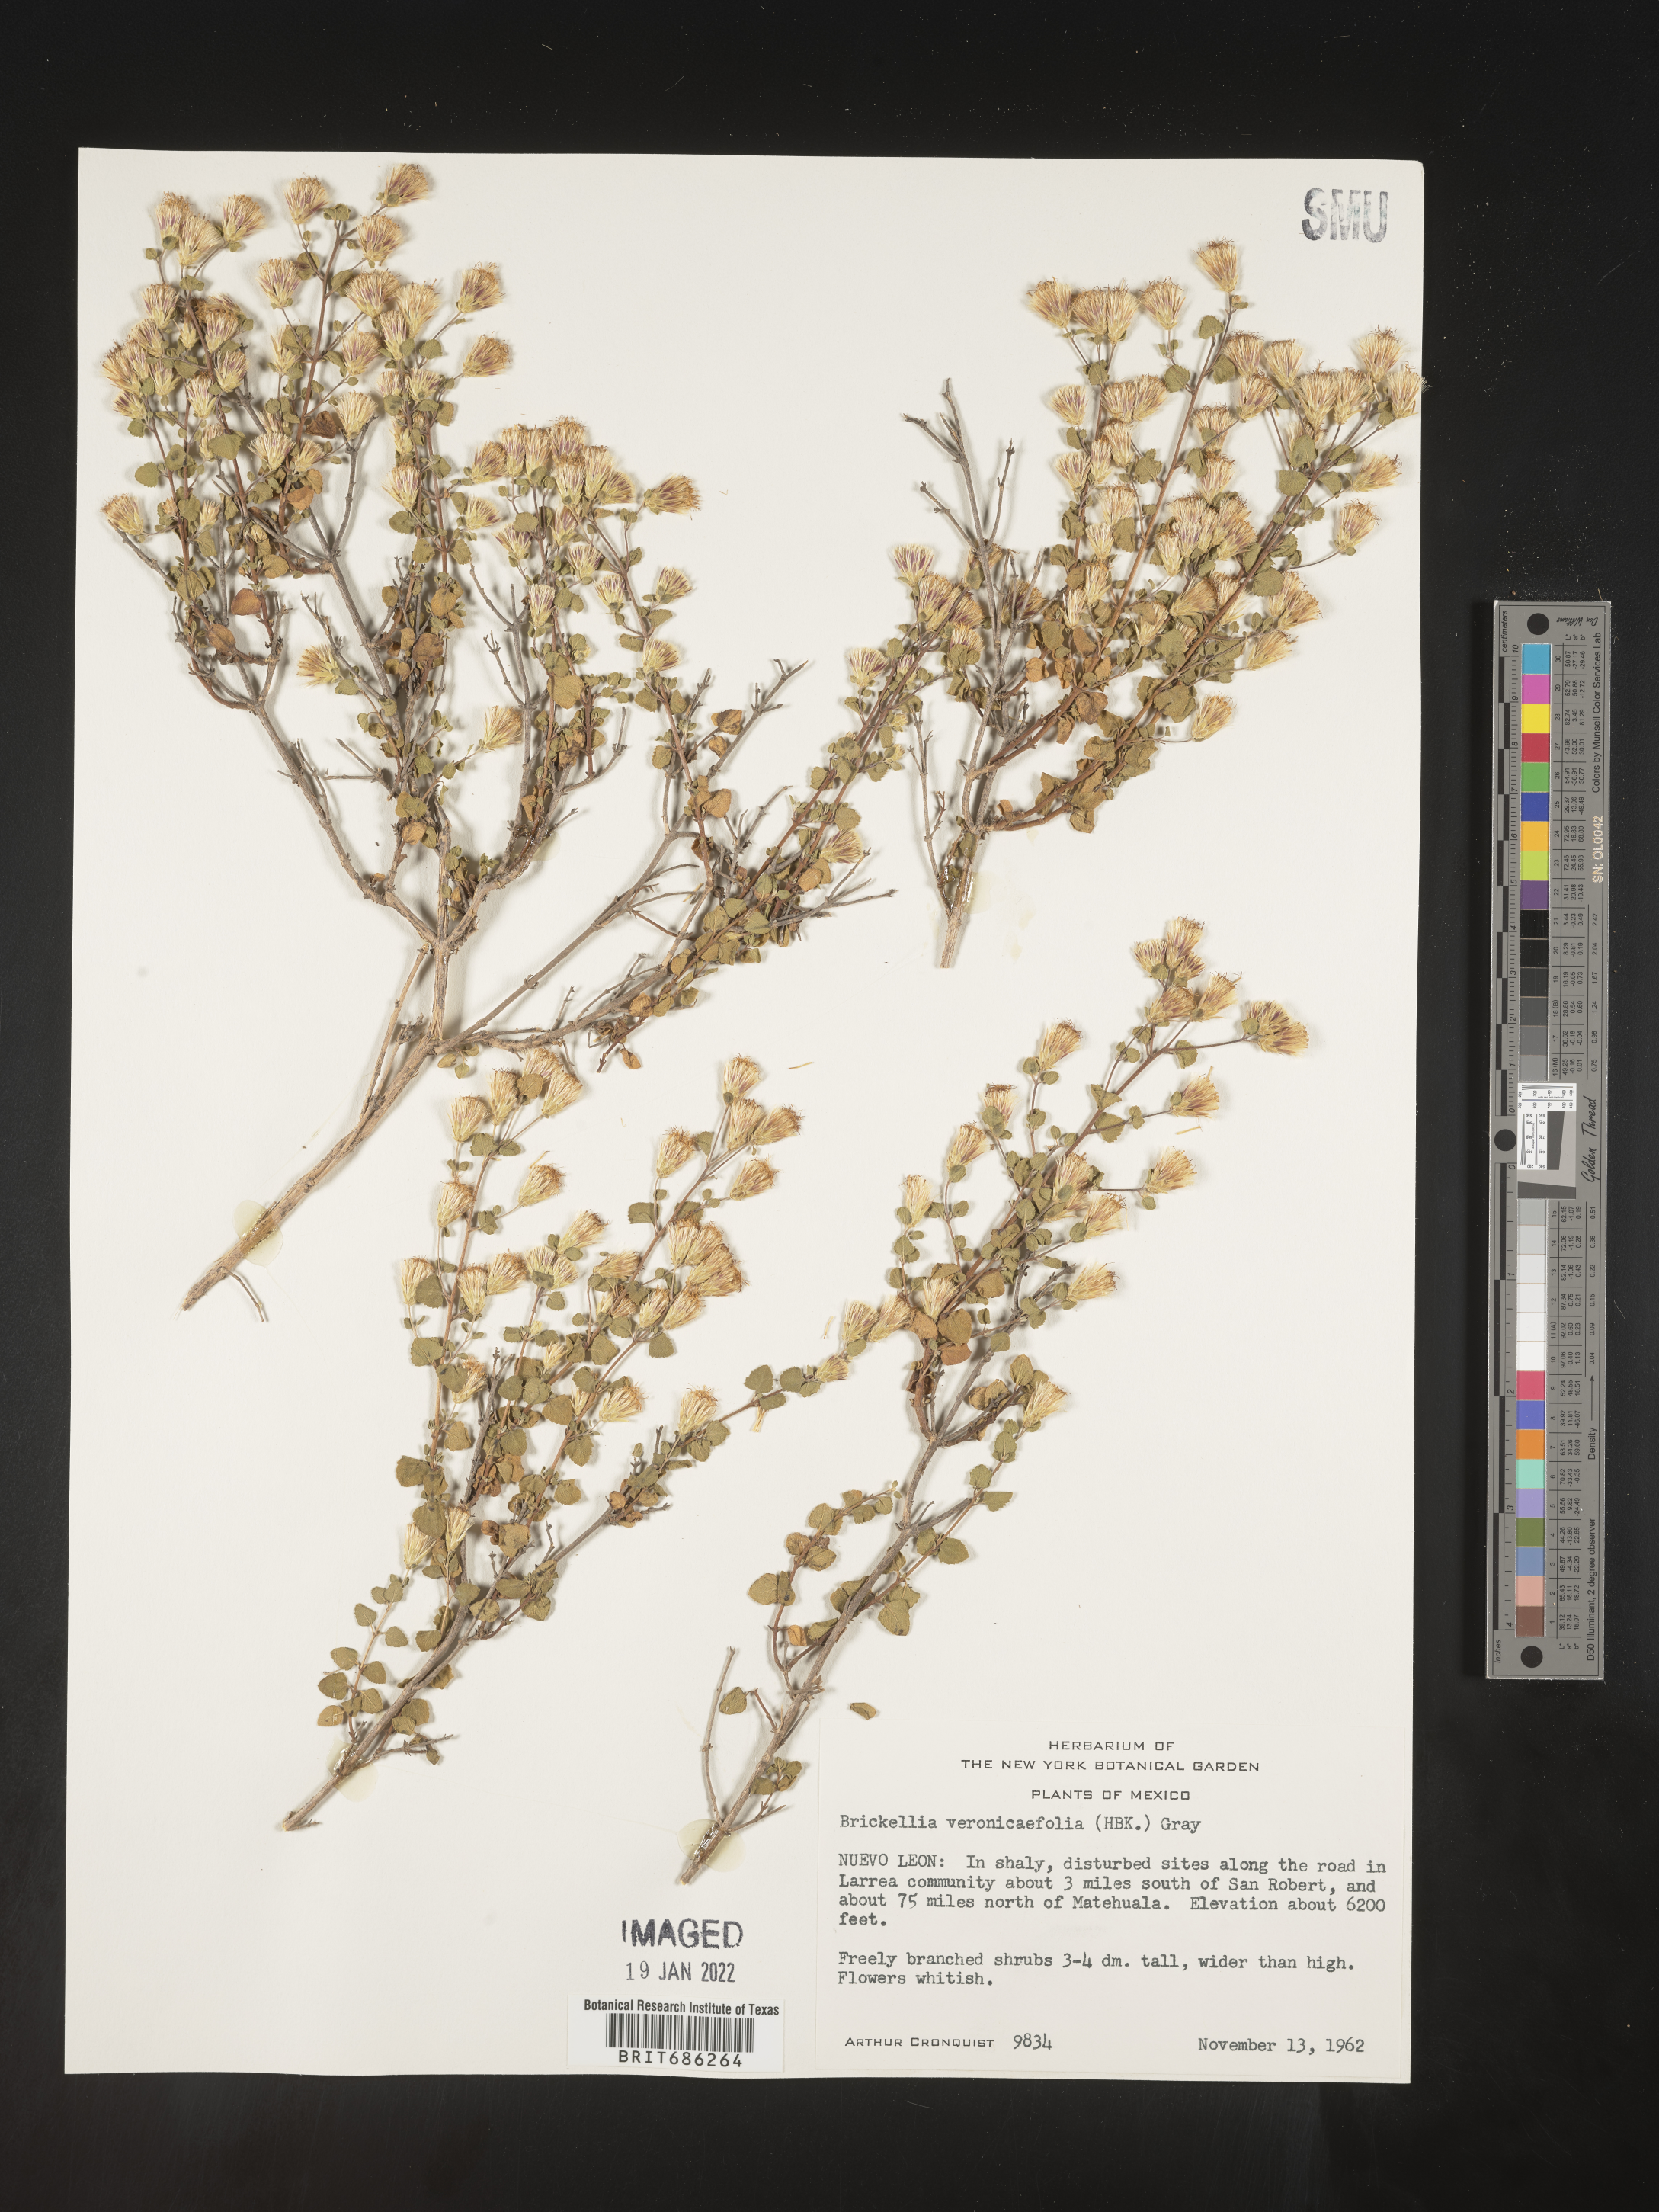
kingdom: Plantae
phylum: Tracheophyta
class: Magnoliopsida
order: Asterales
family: Asteraceae
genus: Brickellia
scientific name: Brickellia veronicifolia
